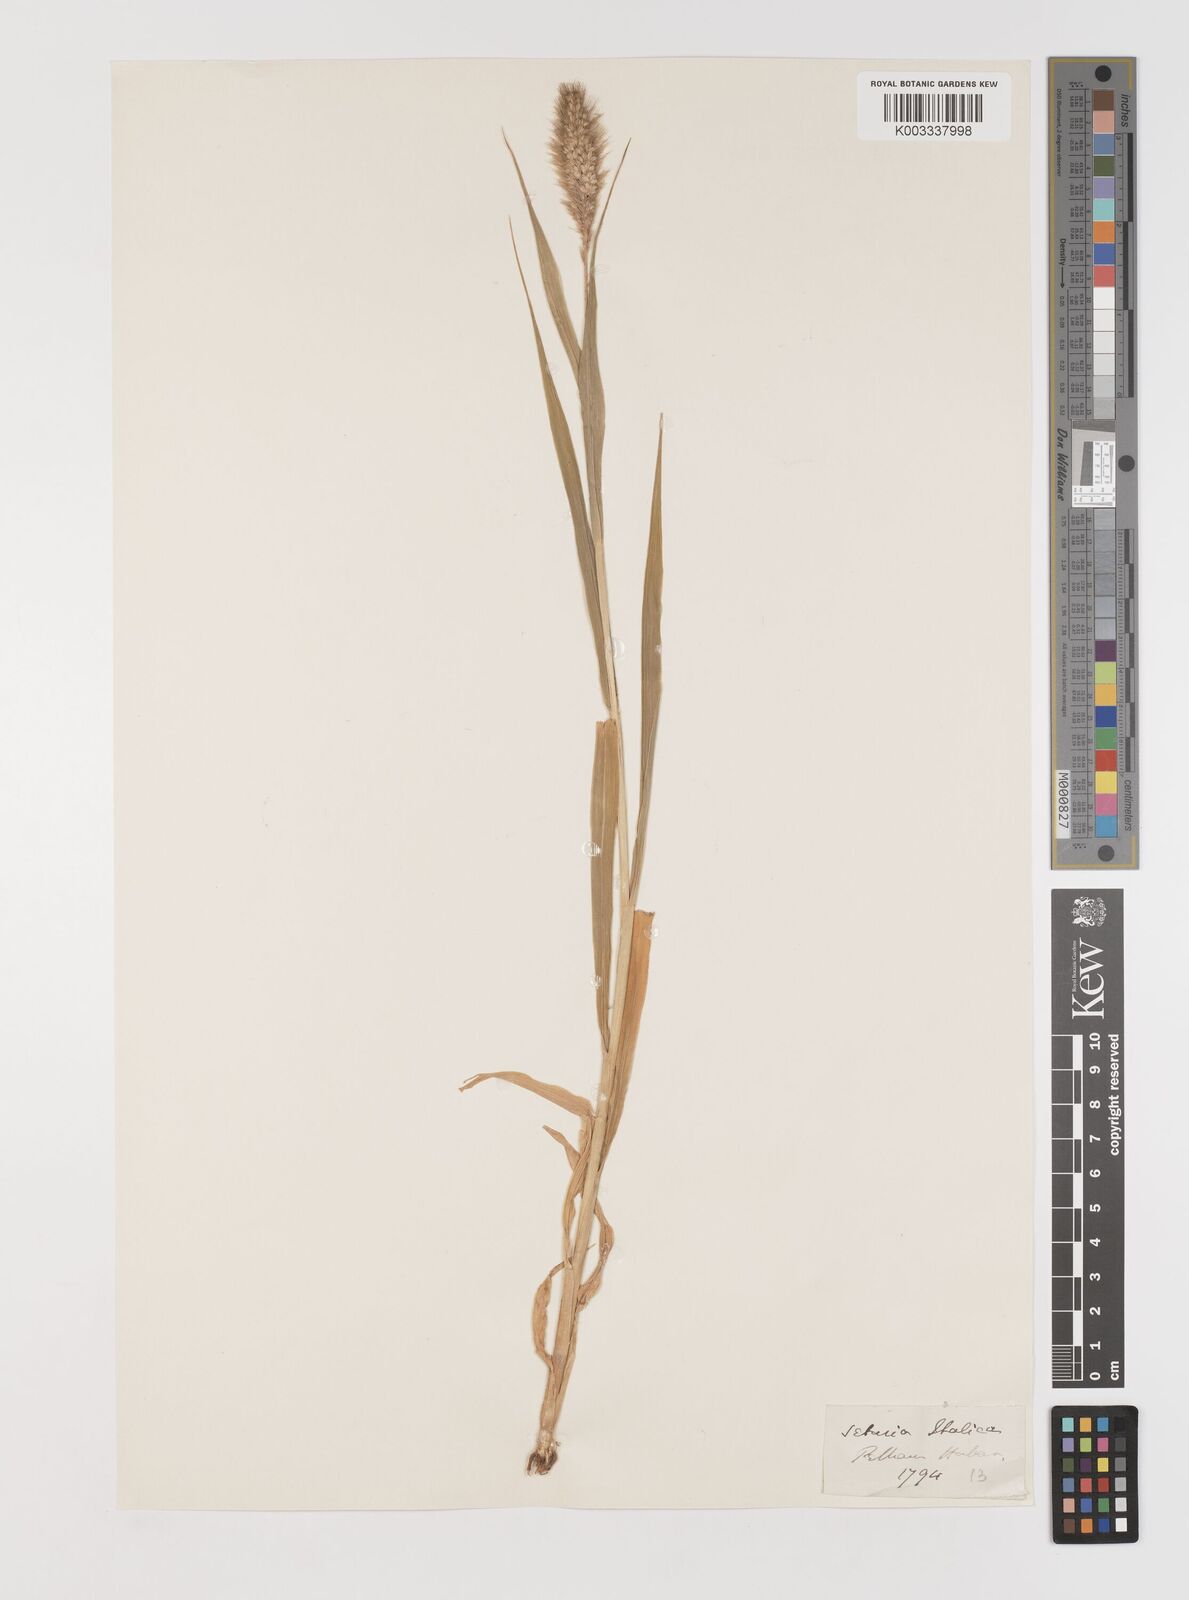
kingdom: Plantae
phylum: Tracheophyta
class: Liliopsida
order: Poales
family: Poaceae
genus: Setaria
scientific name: Setaria italica
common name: Foxtail bristle-grass
